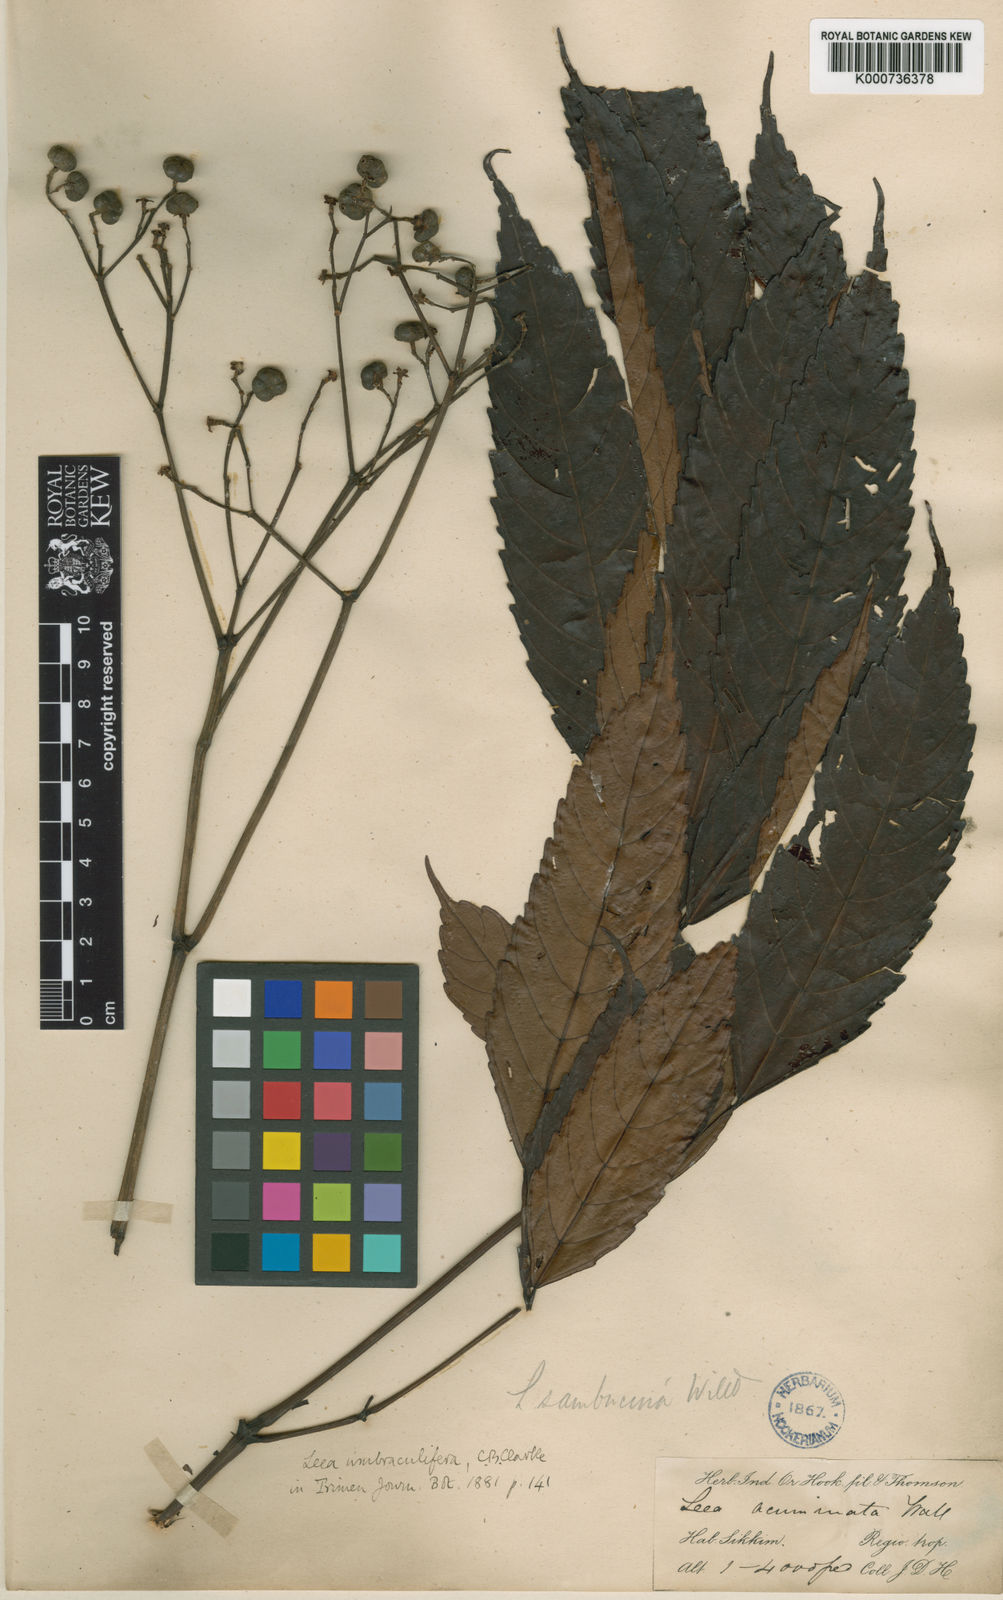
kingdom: Plantae
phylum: Tracheophyta
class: Magnoliopsida
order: Vitales
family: Vitaceae
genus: Leea
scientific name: Leea indica
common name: Bandicoot-berry
